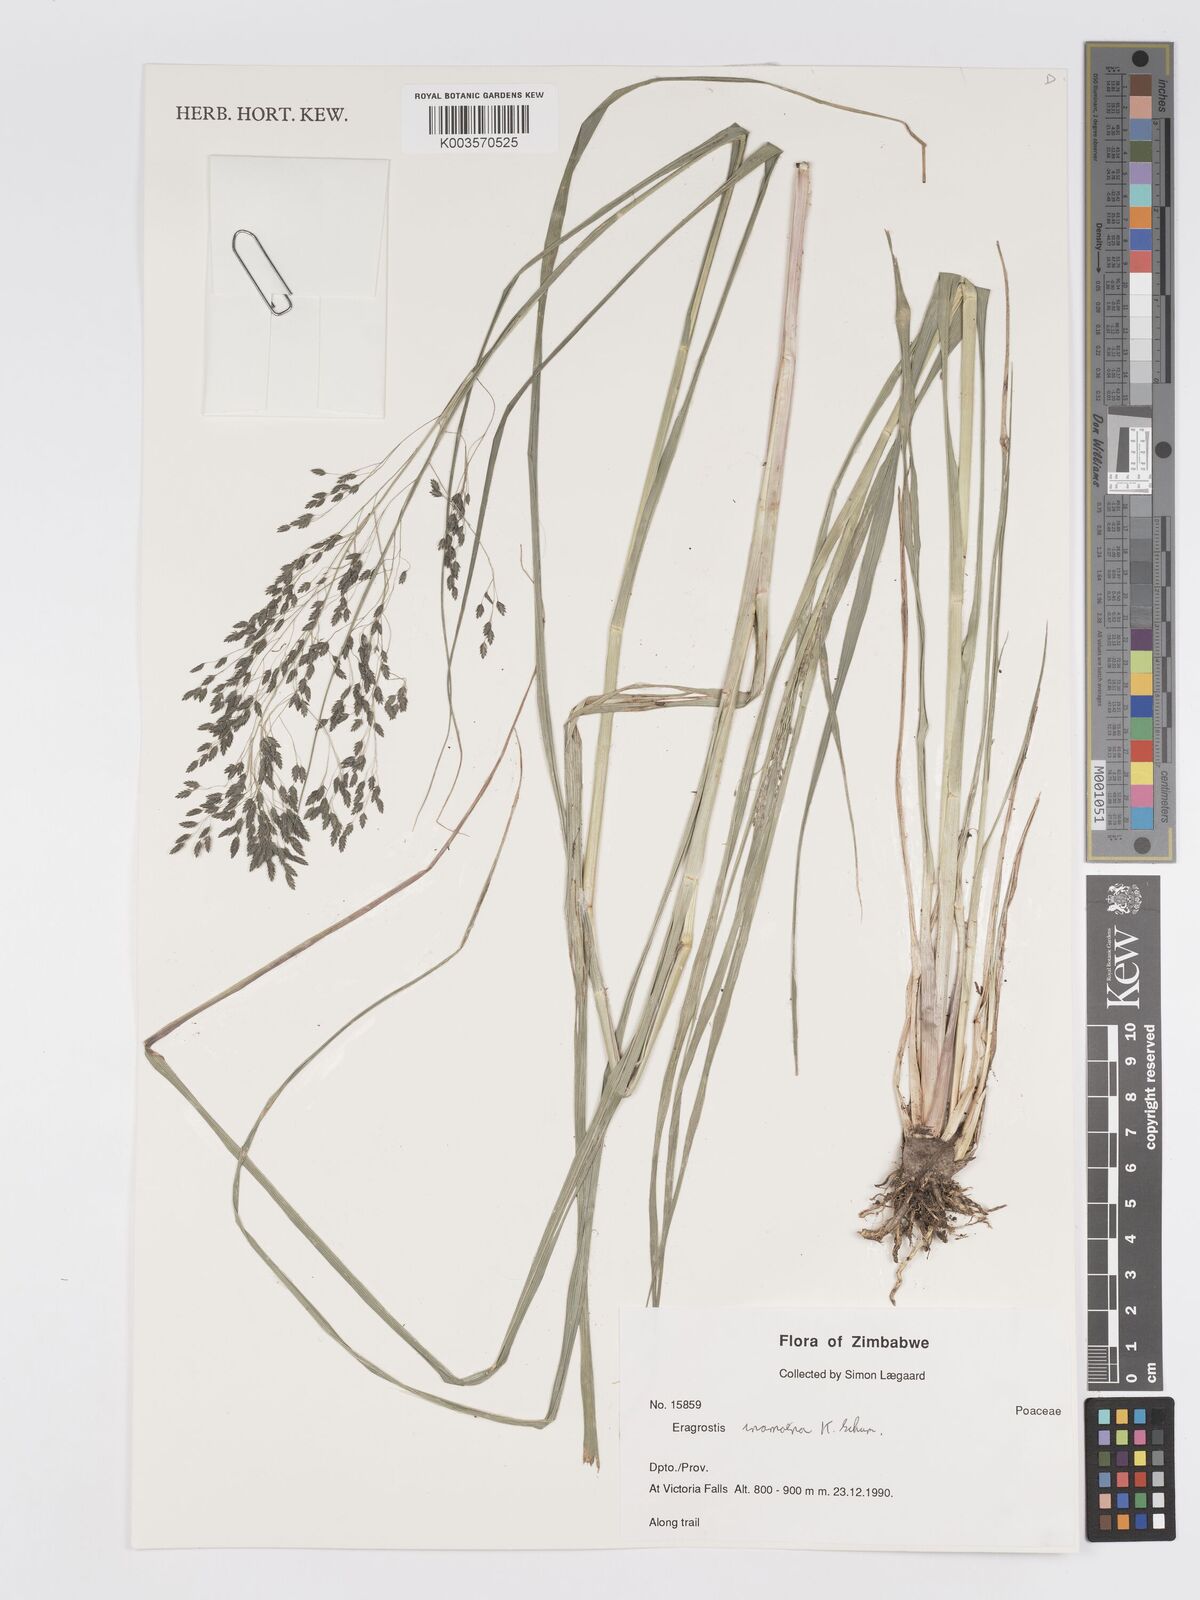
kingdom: Plantae
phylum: Tracheophyta
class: Liliopsida
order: Poales
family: Poaceae
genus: Eragrostis
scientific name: Eragrostis inamoena
